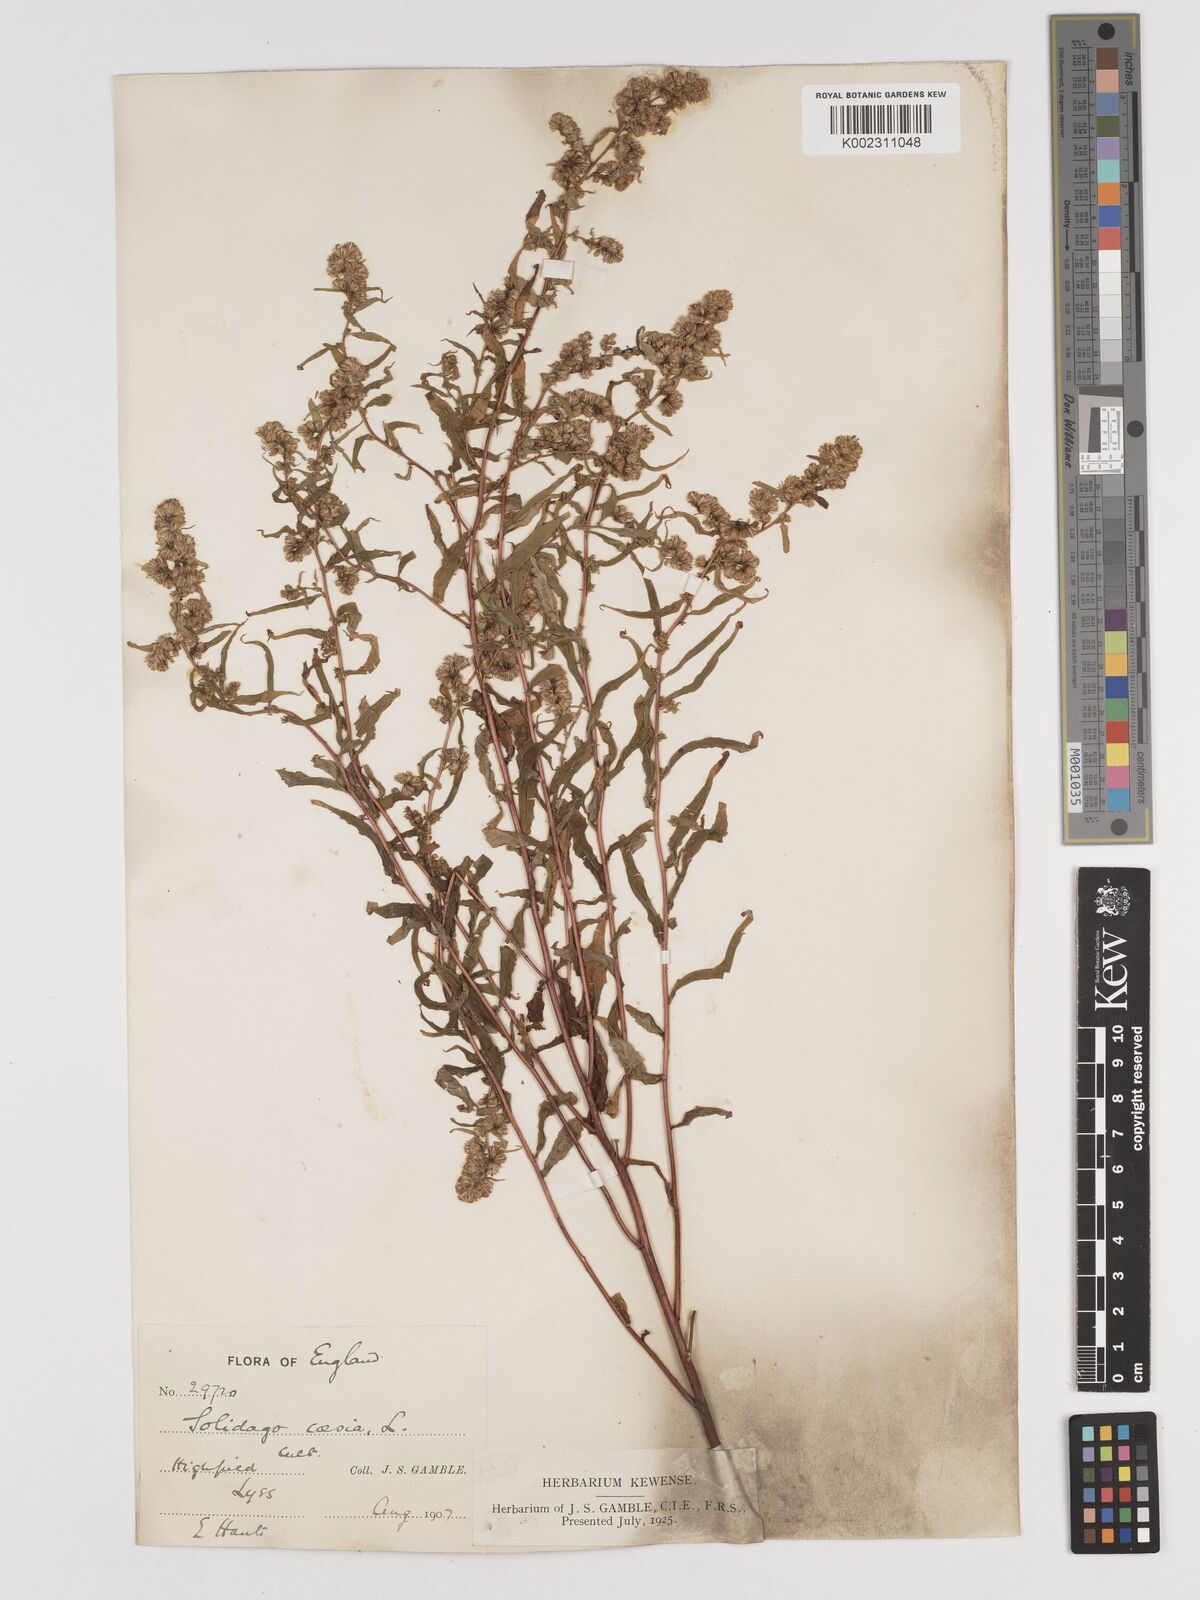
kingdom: Plantae
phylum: Tracheophyta
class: Magnoliopsida
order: Asterales
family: Asteraceae
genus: Solidago
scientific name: Solidago caesia
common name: Woodland goldenrod
